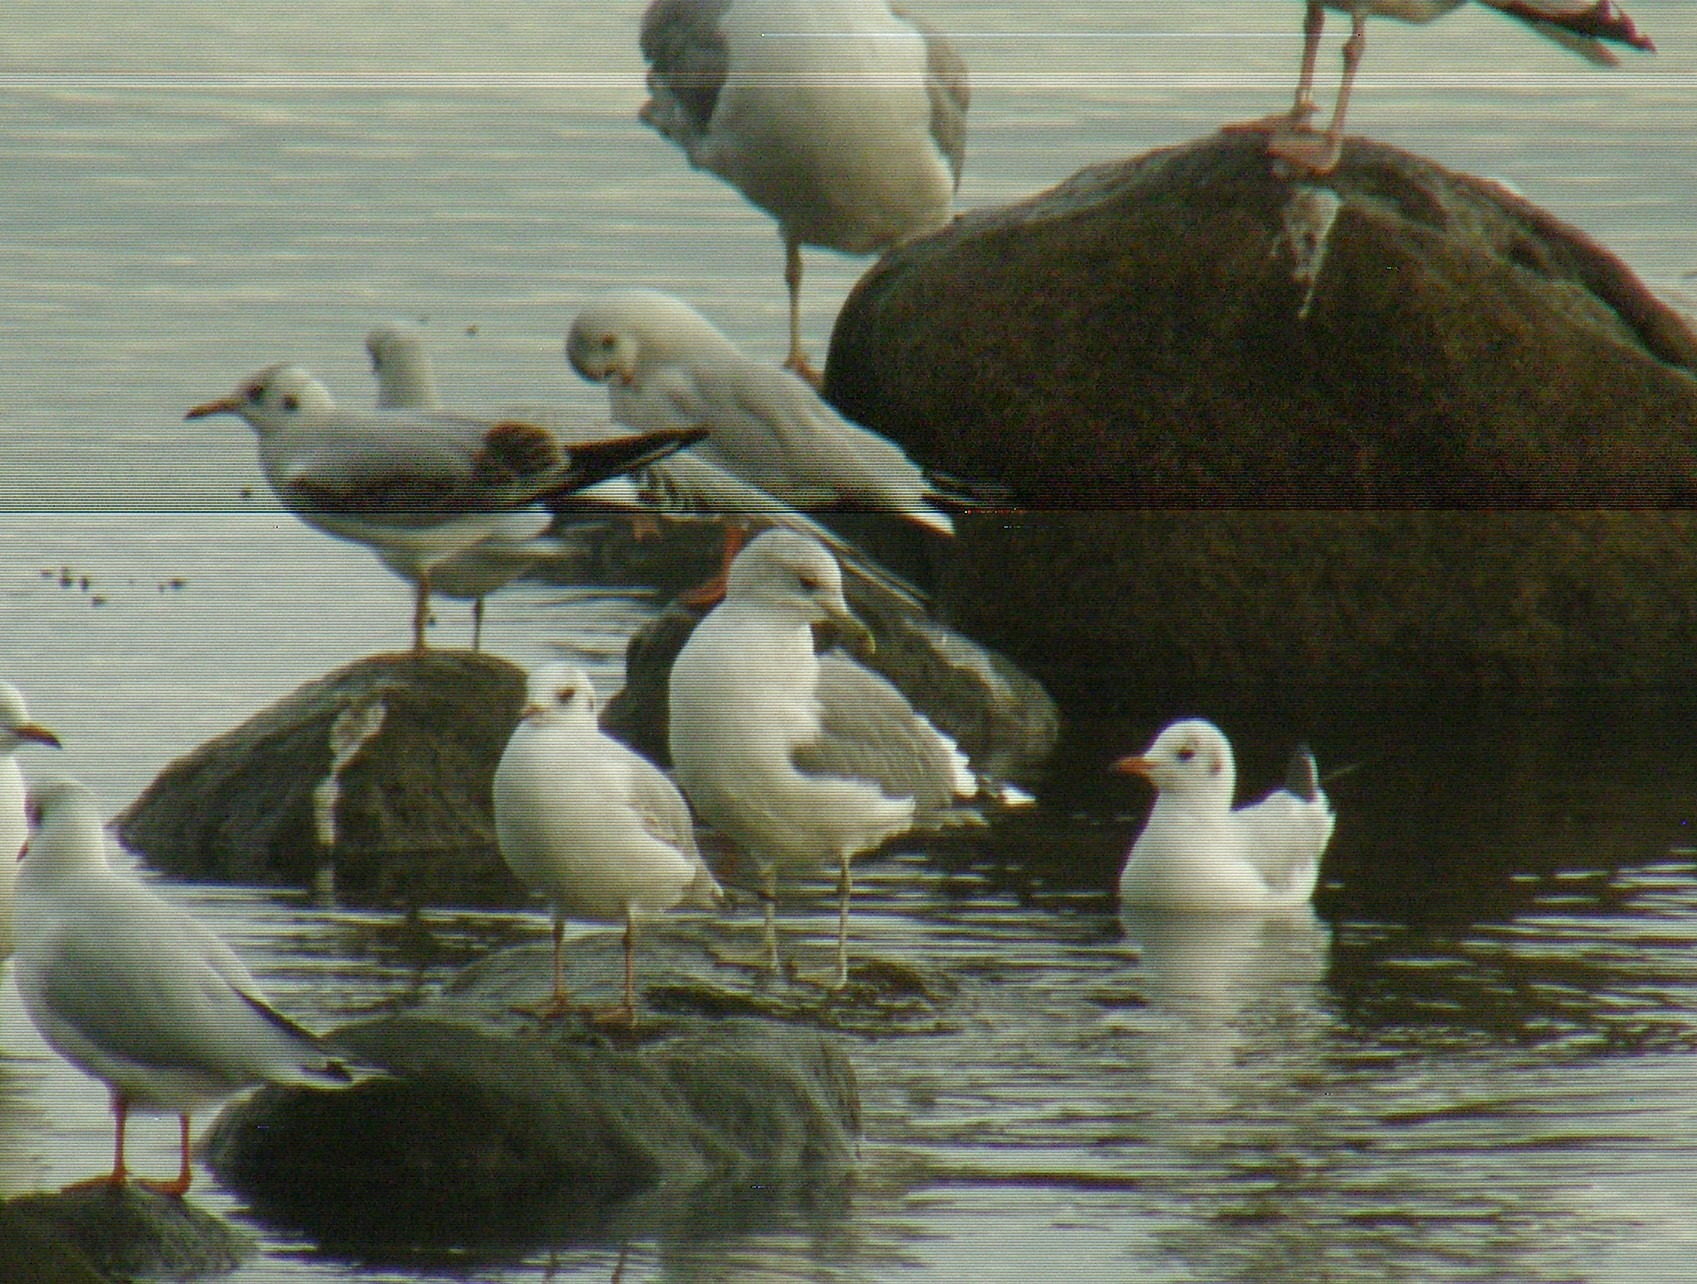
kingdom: Animalia
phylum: Chordata
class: Aves
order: Charadriiformes
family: Laridae
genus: Larus
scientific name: Larus canus
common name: Stormmåge
